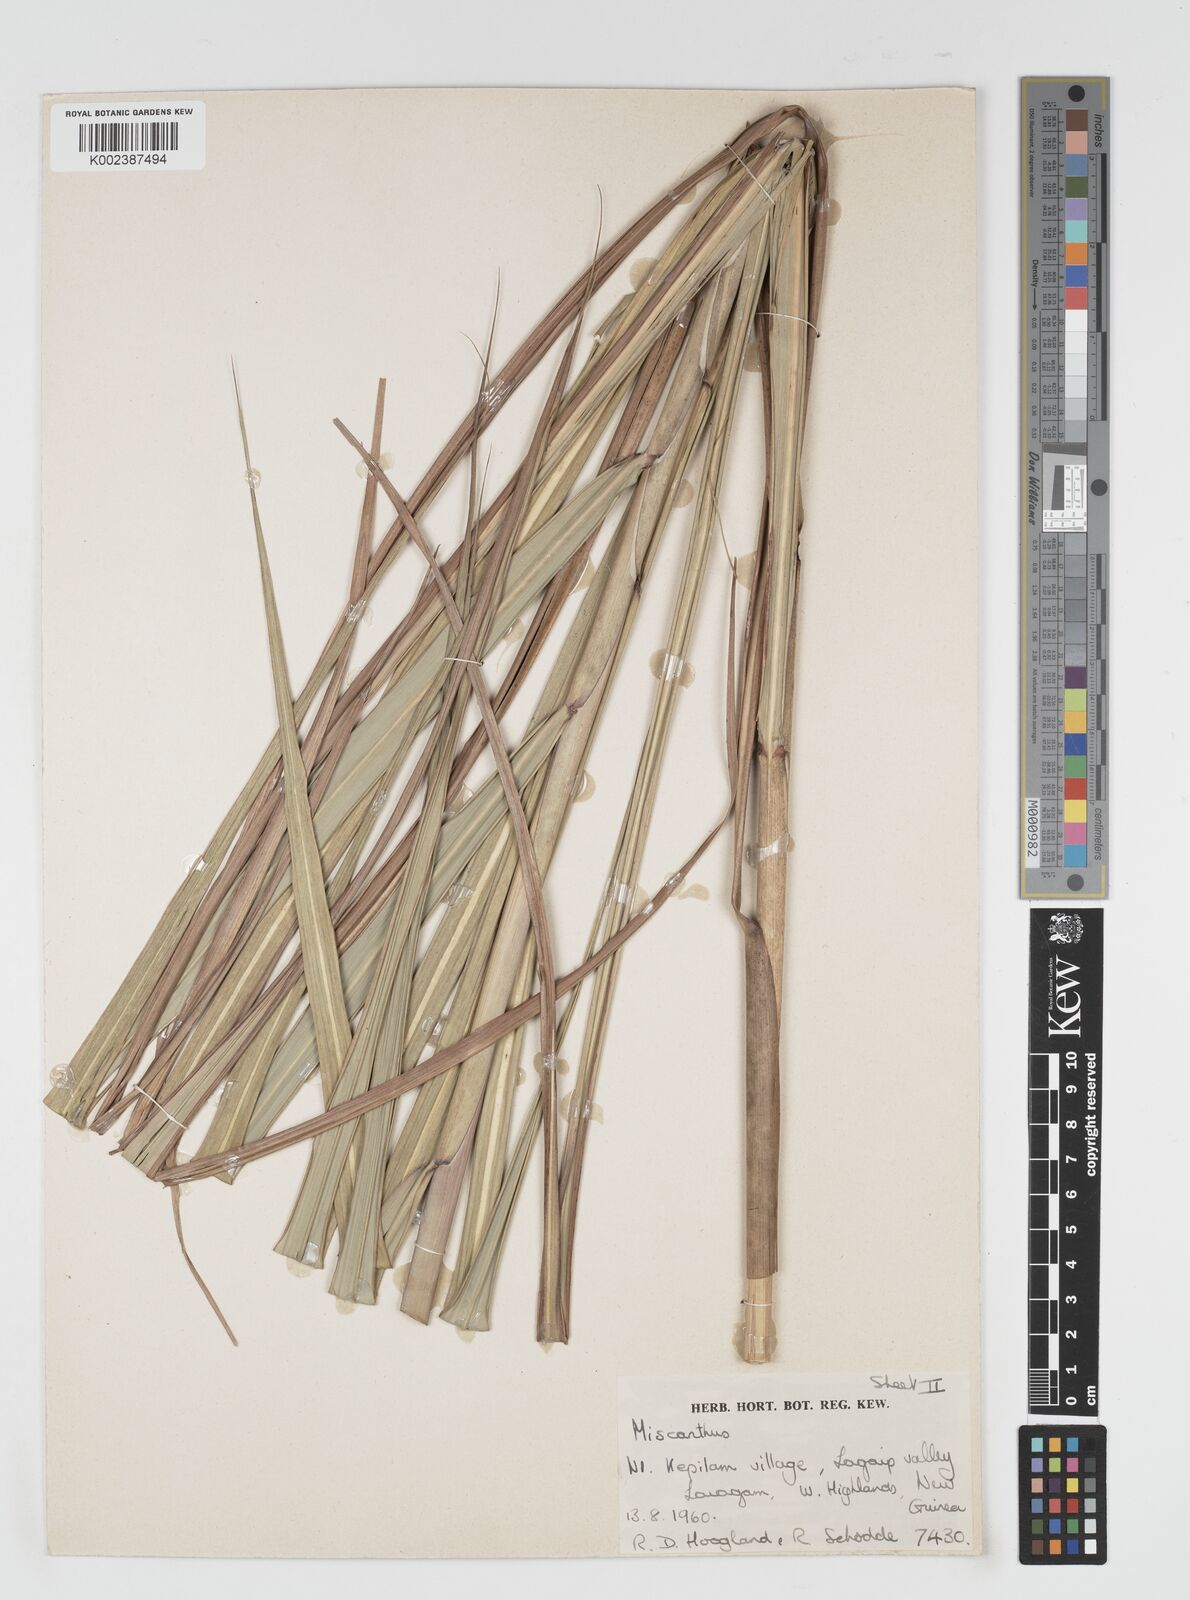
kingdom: Plantae
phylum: Tracheophyta
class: Liliopsida
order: Poales
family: Poaceae
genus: Miscanthus
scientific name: Miscanthus floridulus
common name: Pacific island silvergrass
